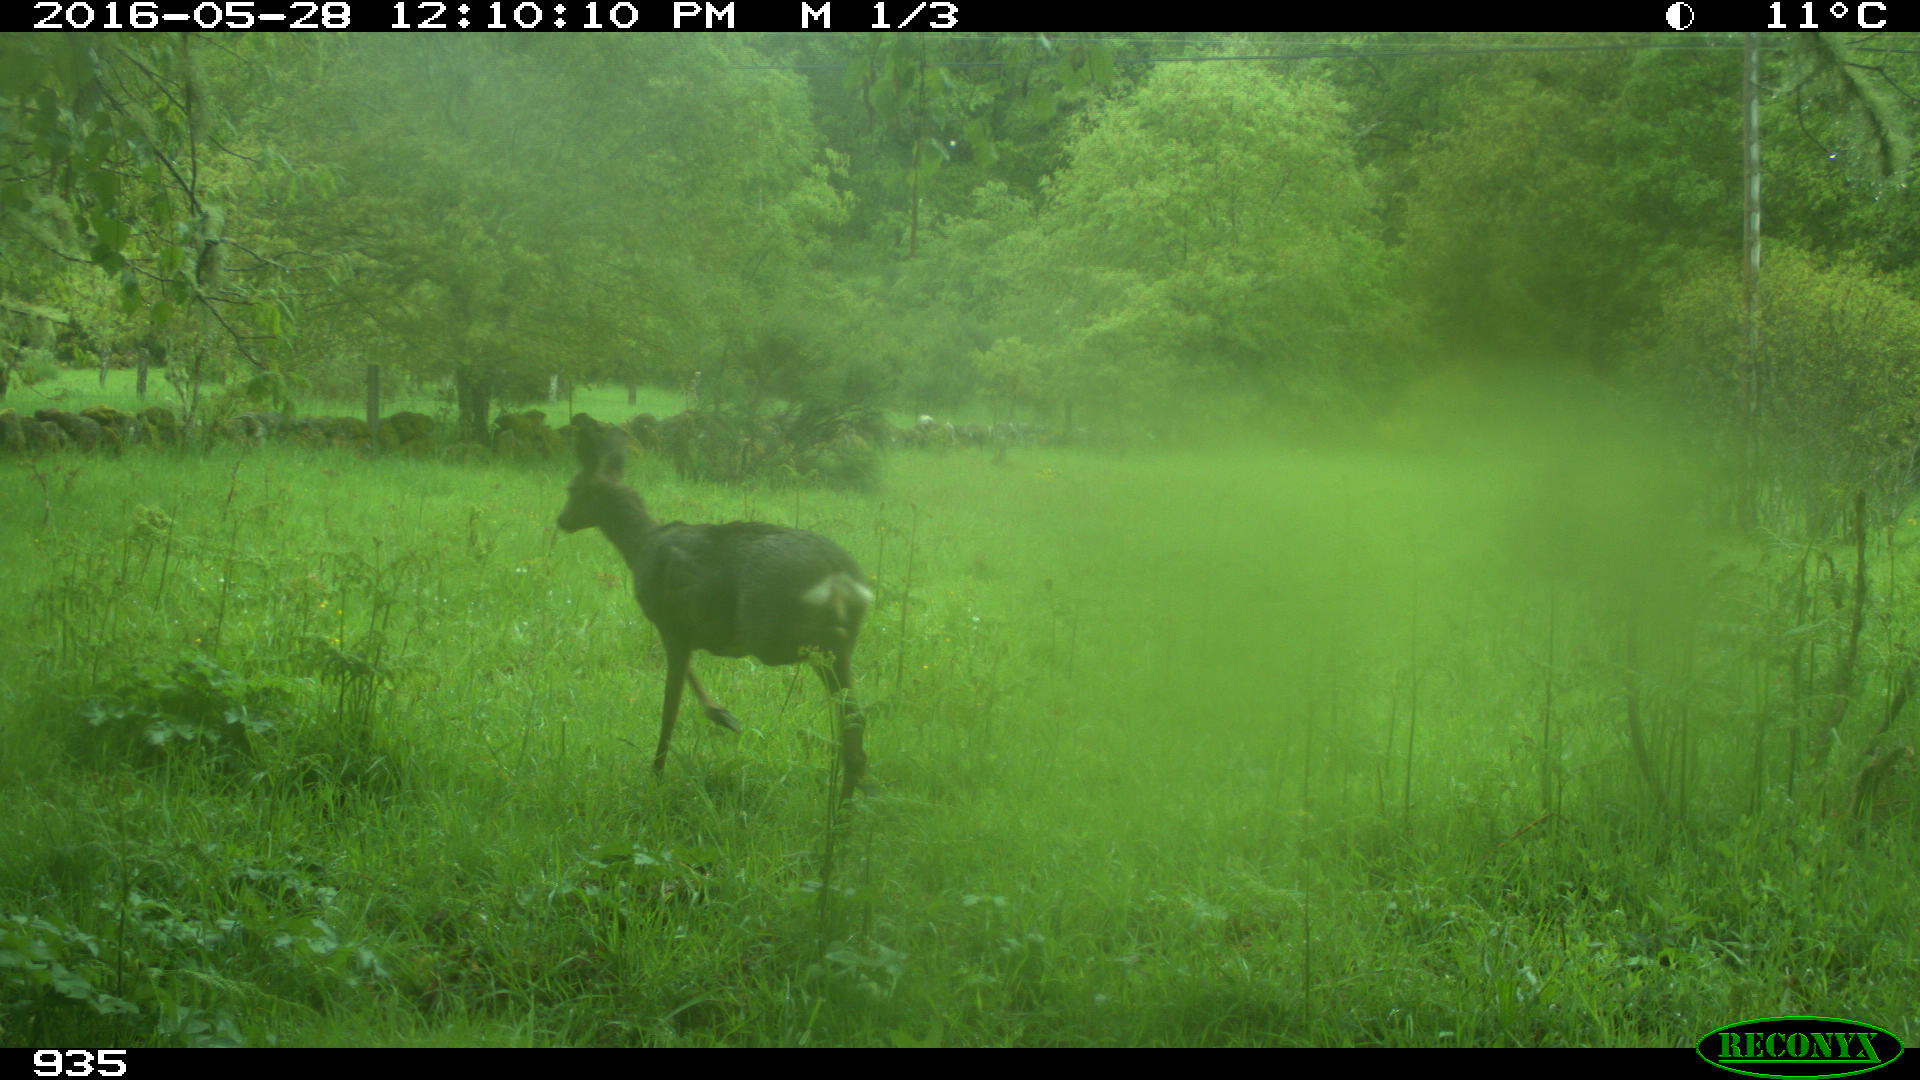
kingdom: Animalia
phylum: Chordata
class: Mammalia
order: Artiodactyla
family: Cervidae
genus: Capreolus
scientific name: Capreolus capreolus
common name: Western roe deer
